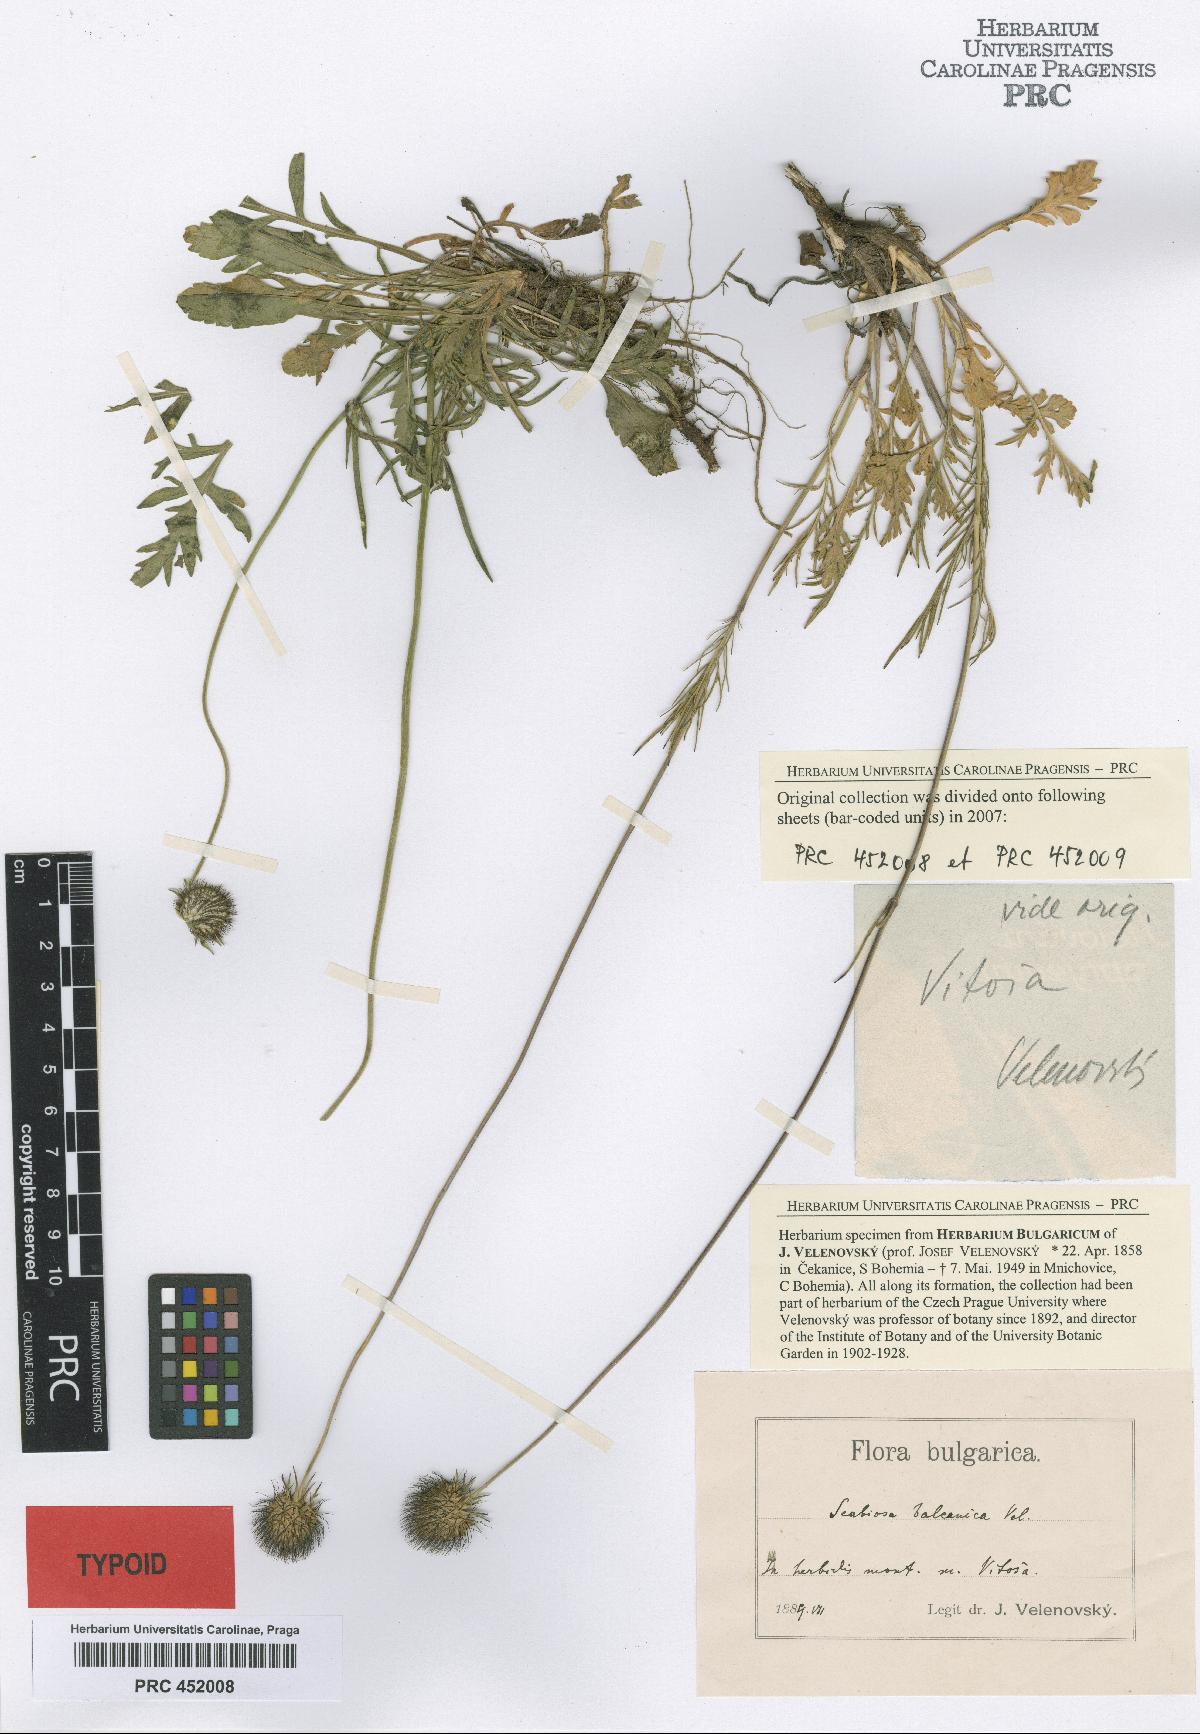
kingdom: Plantae
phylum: Tracheophyta
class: Magnoliopsida
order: Dipsacales
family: Caprifoliaceae
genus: Scabiosa
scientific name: Scabiosa balcanica
